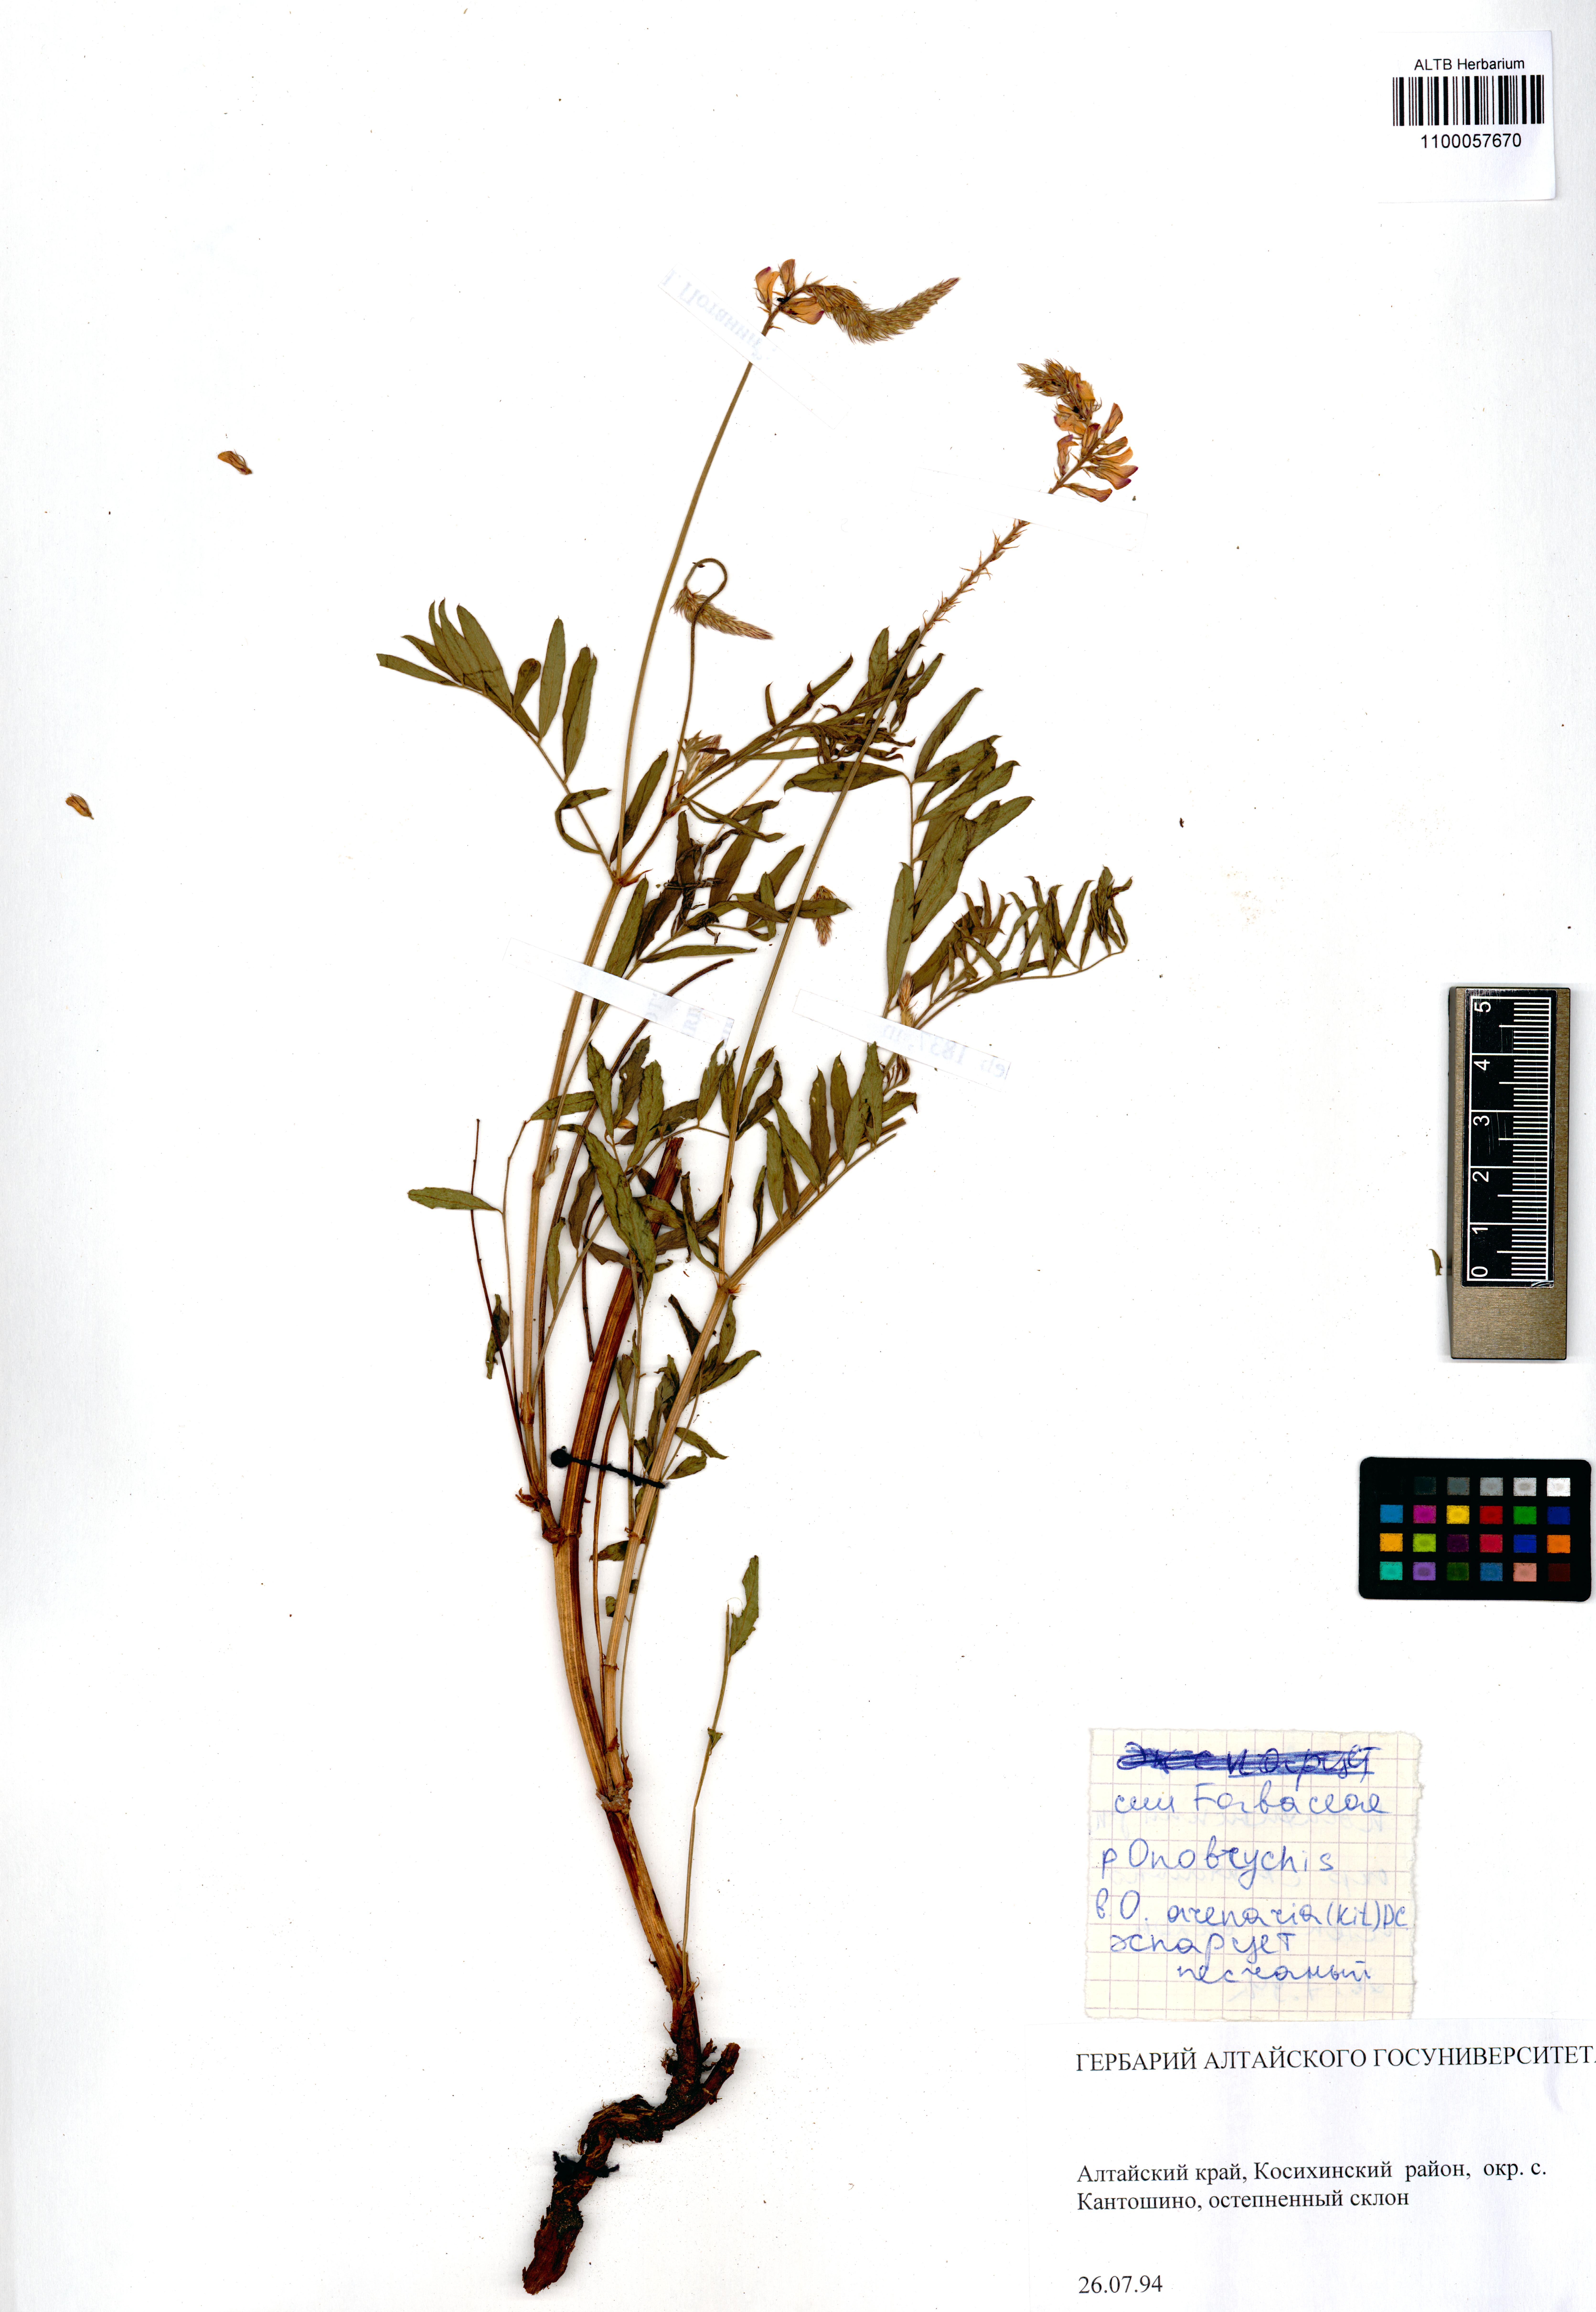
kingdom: Plantae
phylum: Tracheophyta
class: Magnoliopsida
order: Fabales
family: Fabaceae
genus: Onobrychis
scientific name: Onobrychis arenaria
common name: Sand esparcet
